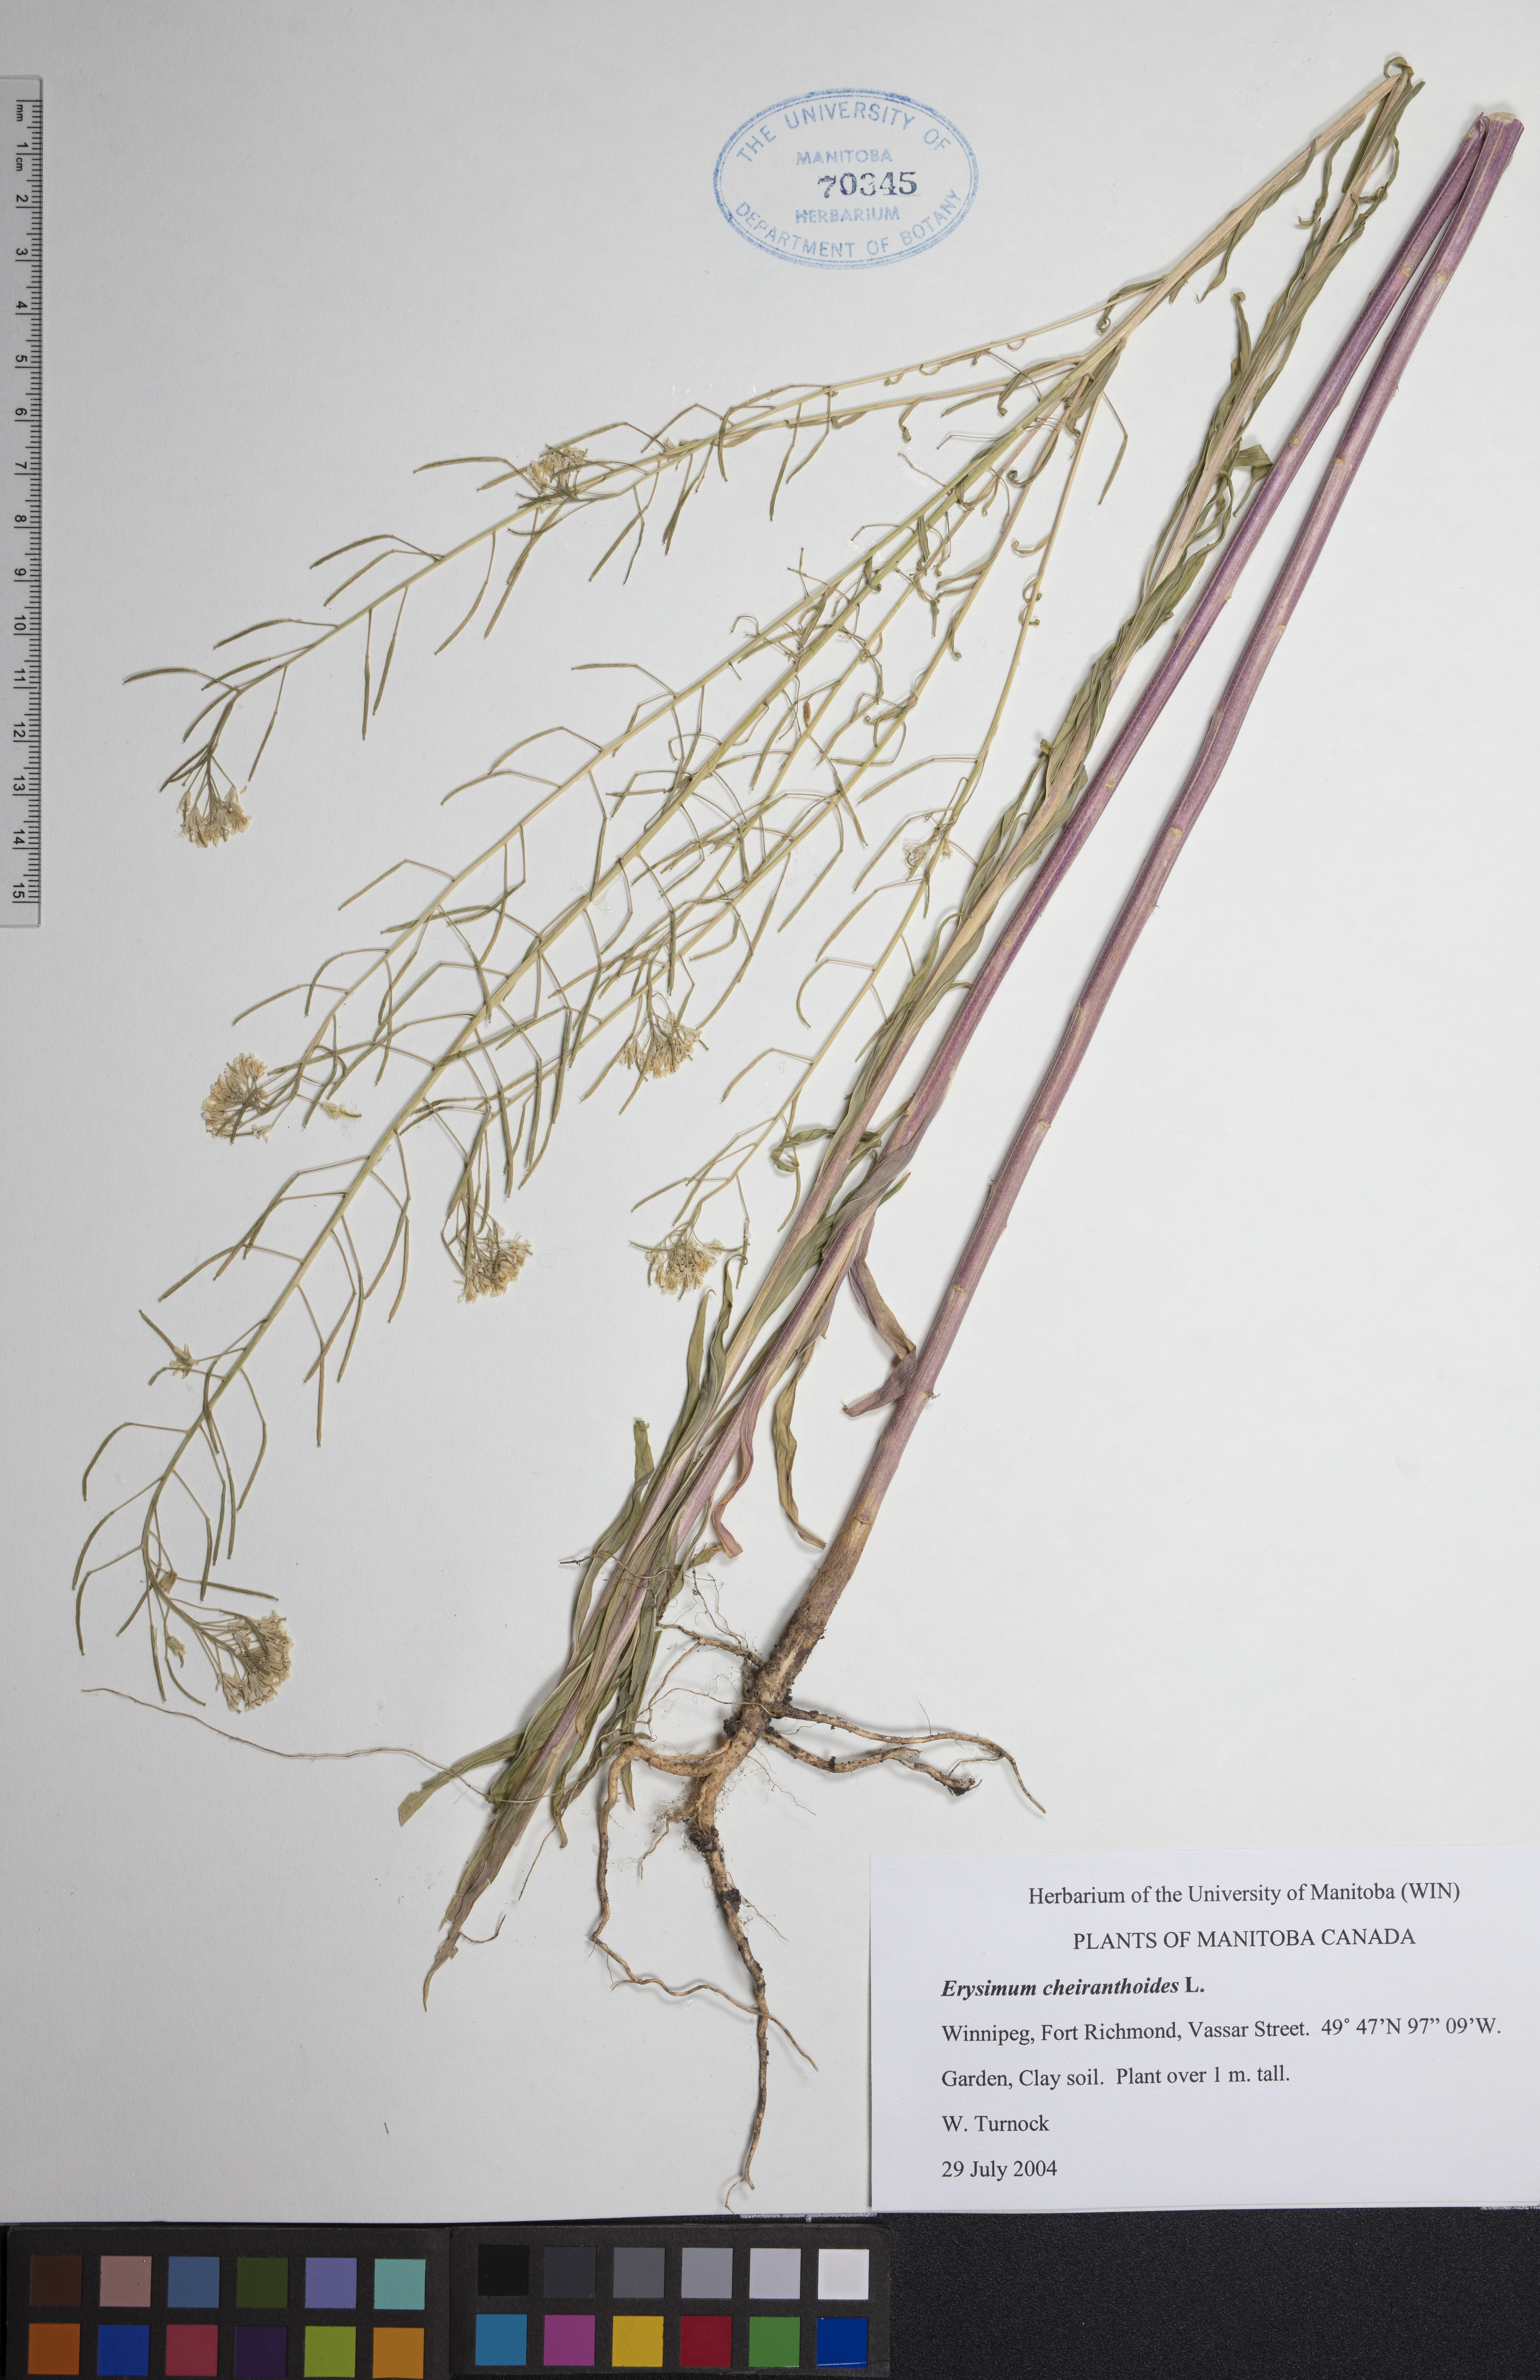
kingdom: Plantae
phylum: Tracheophyta
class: Magnoliopsida
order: Brassicales
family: Brassicaceae
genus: Erysimum
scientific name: Erysimum cheiranthoides
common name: Treacle mustard
